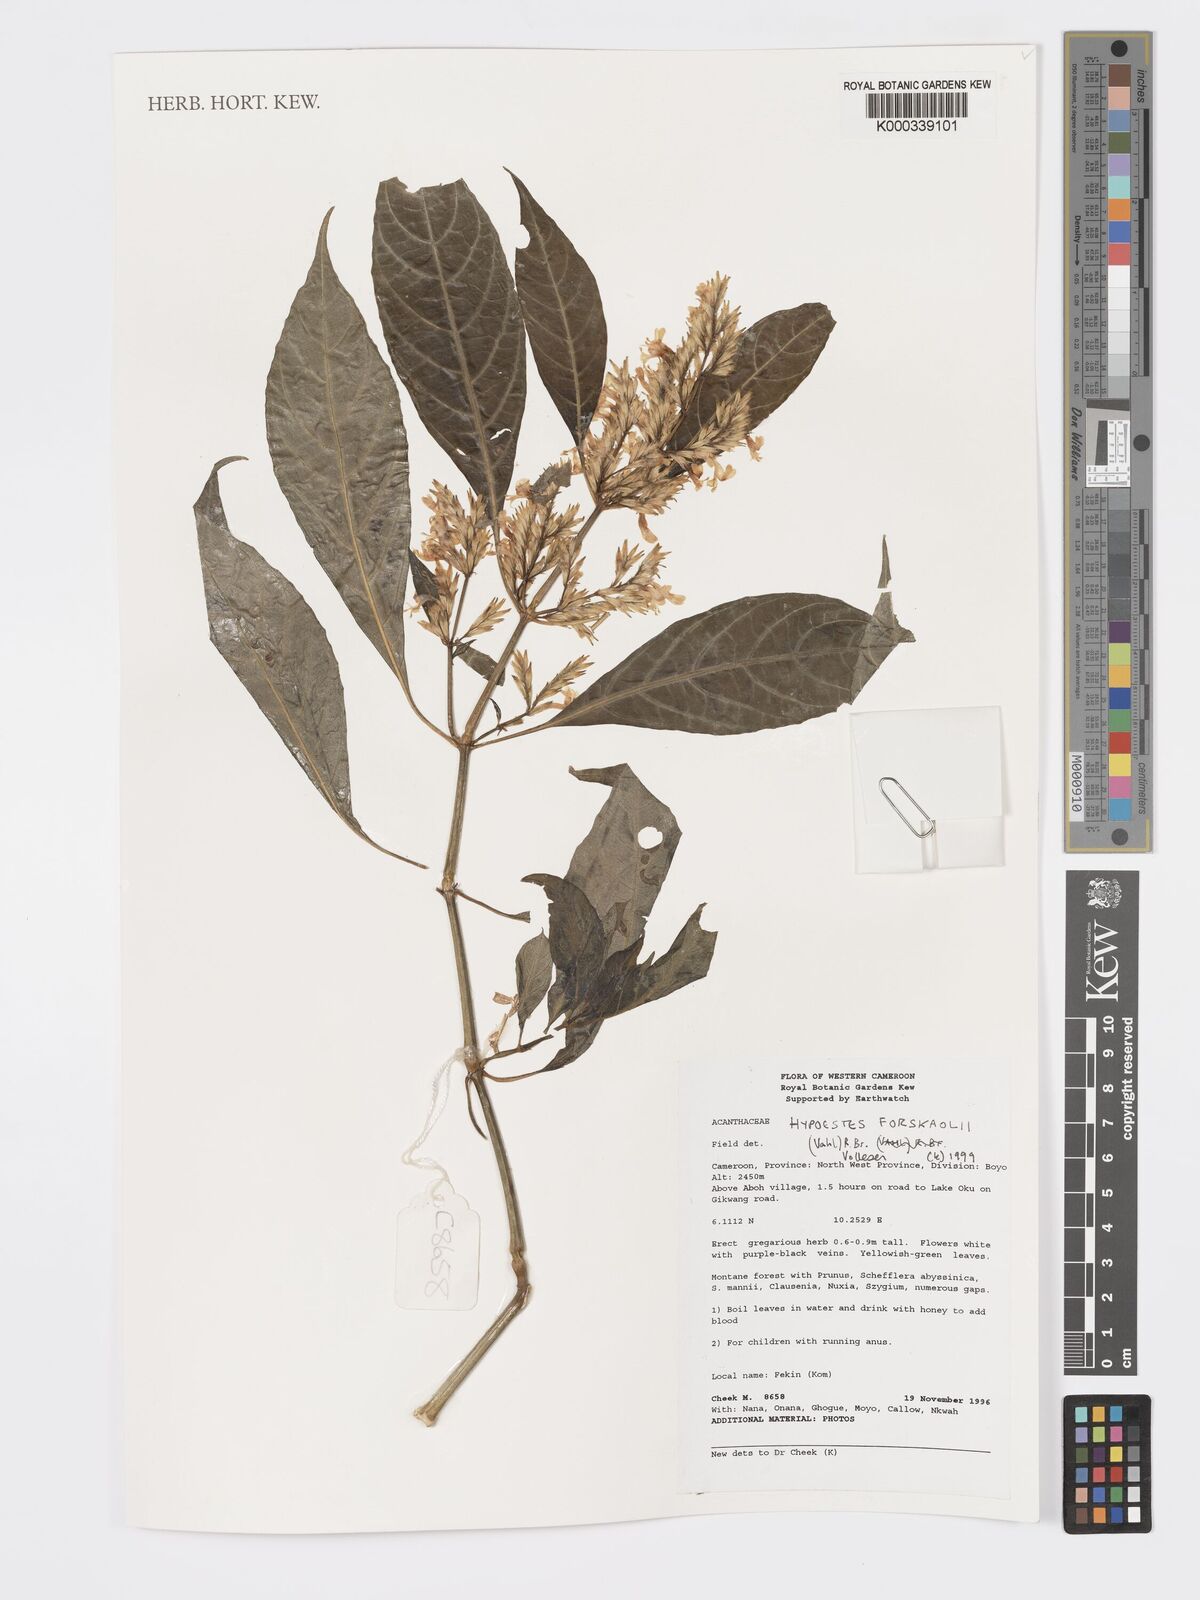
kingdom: Plantae
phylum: Tracheophyta
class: Magnoliopsida
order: Lamiales
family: Acanthaceae
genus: Hypoestes
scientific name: Hypoestes forskaolii
